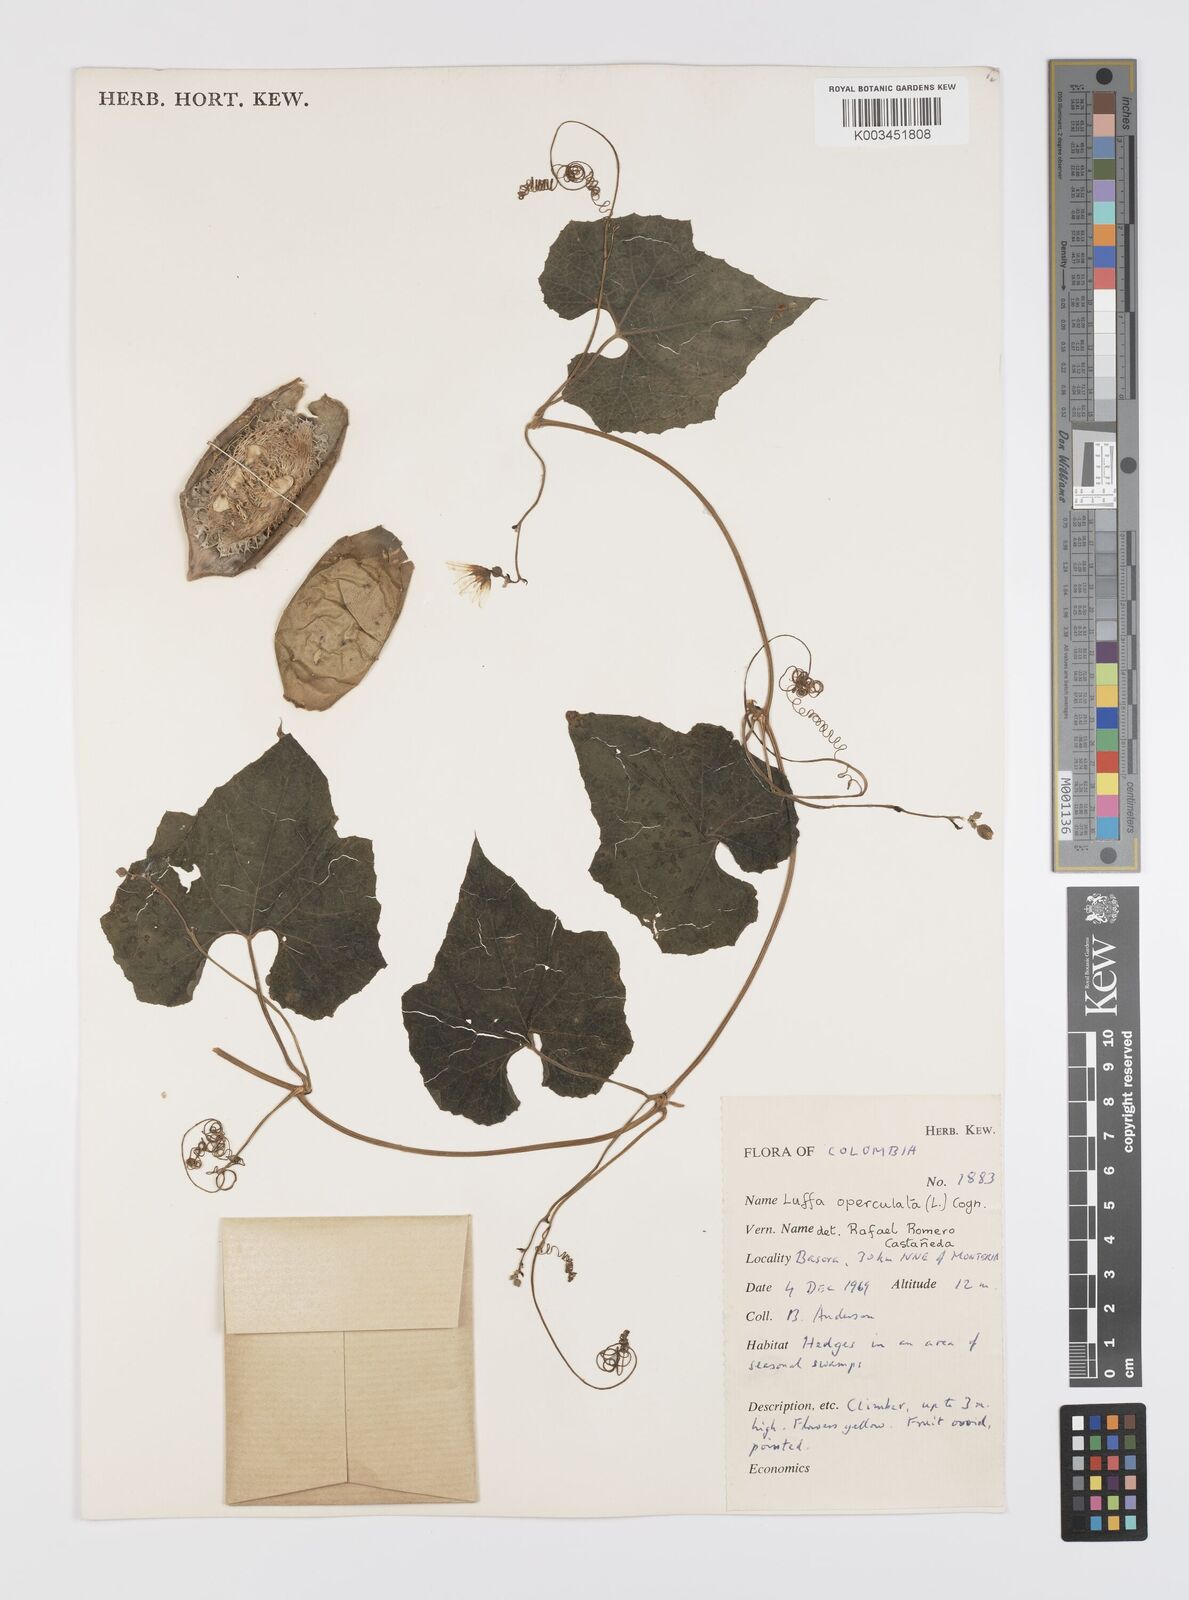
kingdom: Plantae
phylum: Tracheophyta
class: Magnoliopsida
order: Cucurbitales
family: Cucurbitaceae
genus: Luffa
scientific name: Luffa operculata
